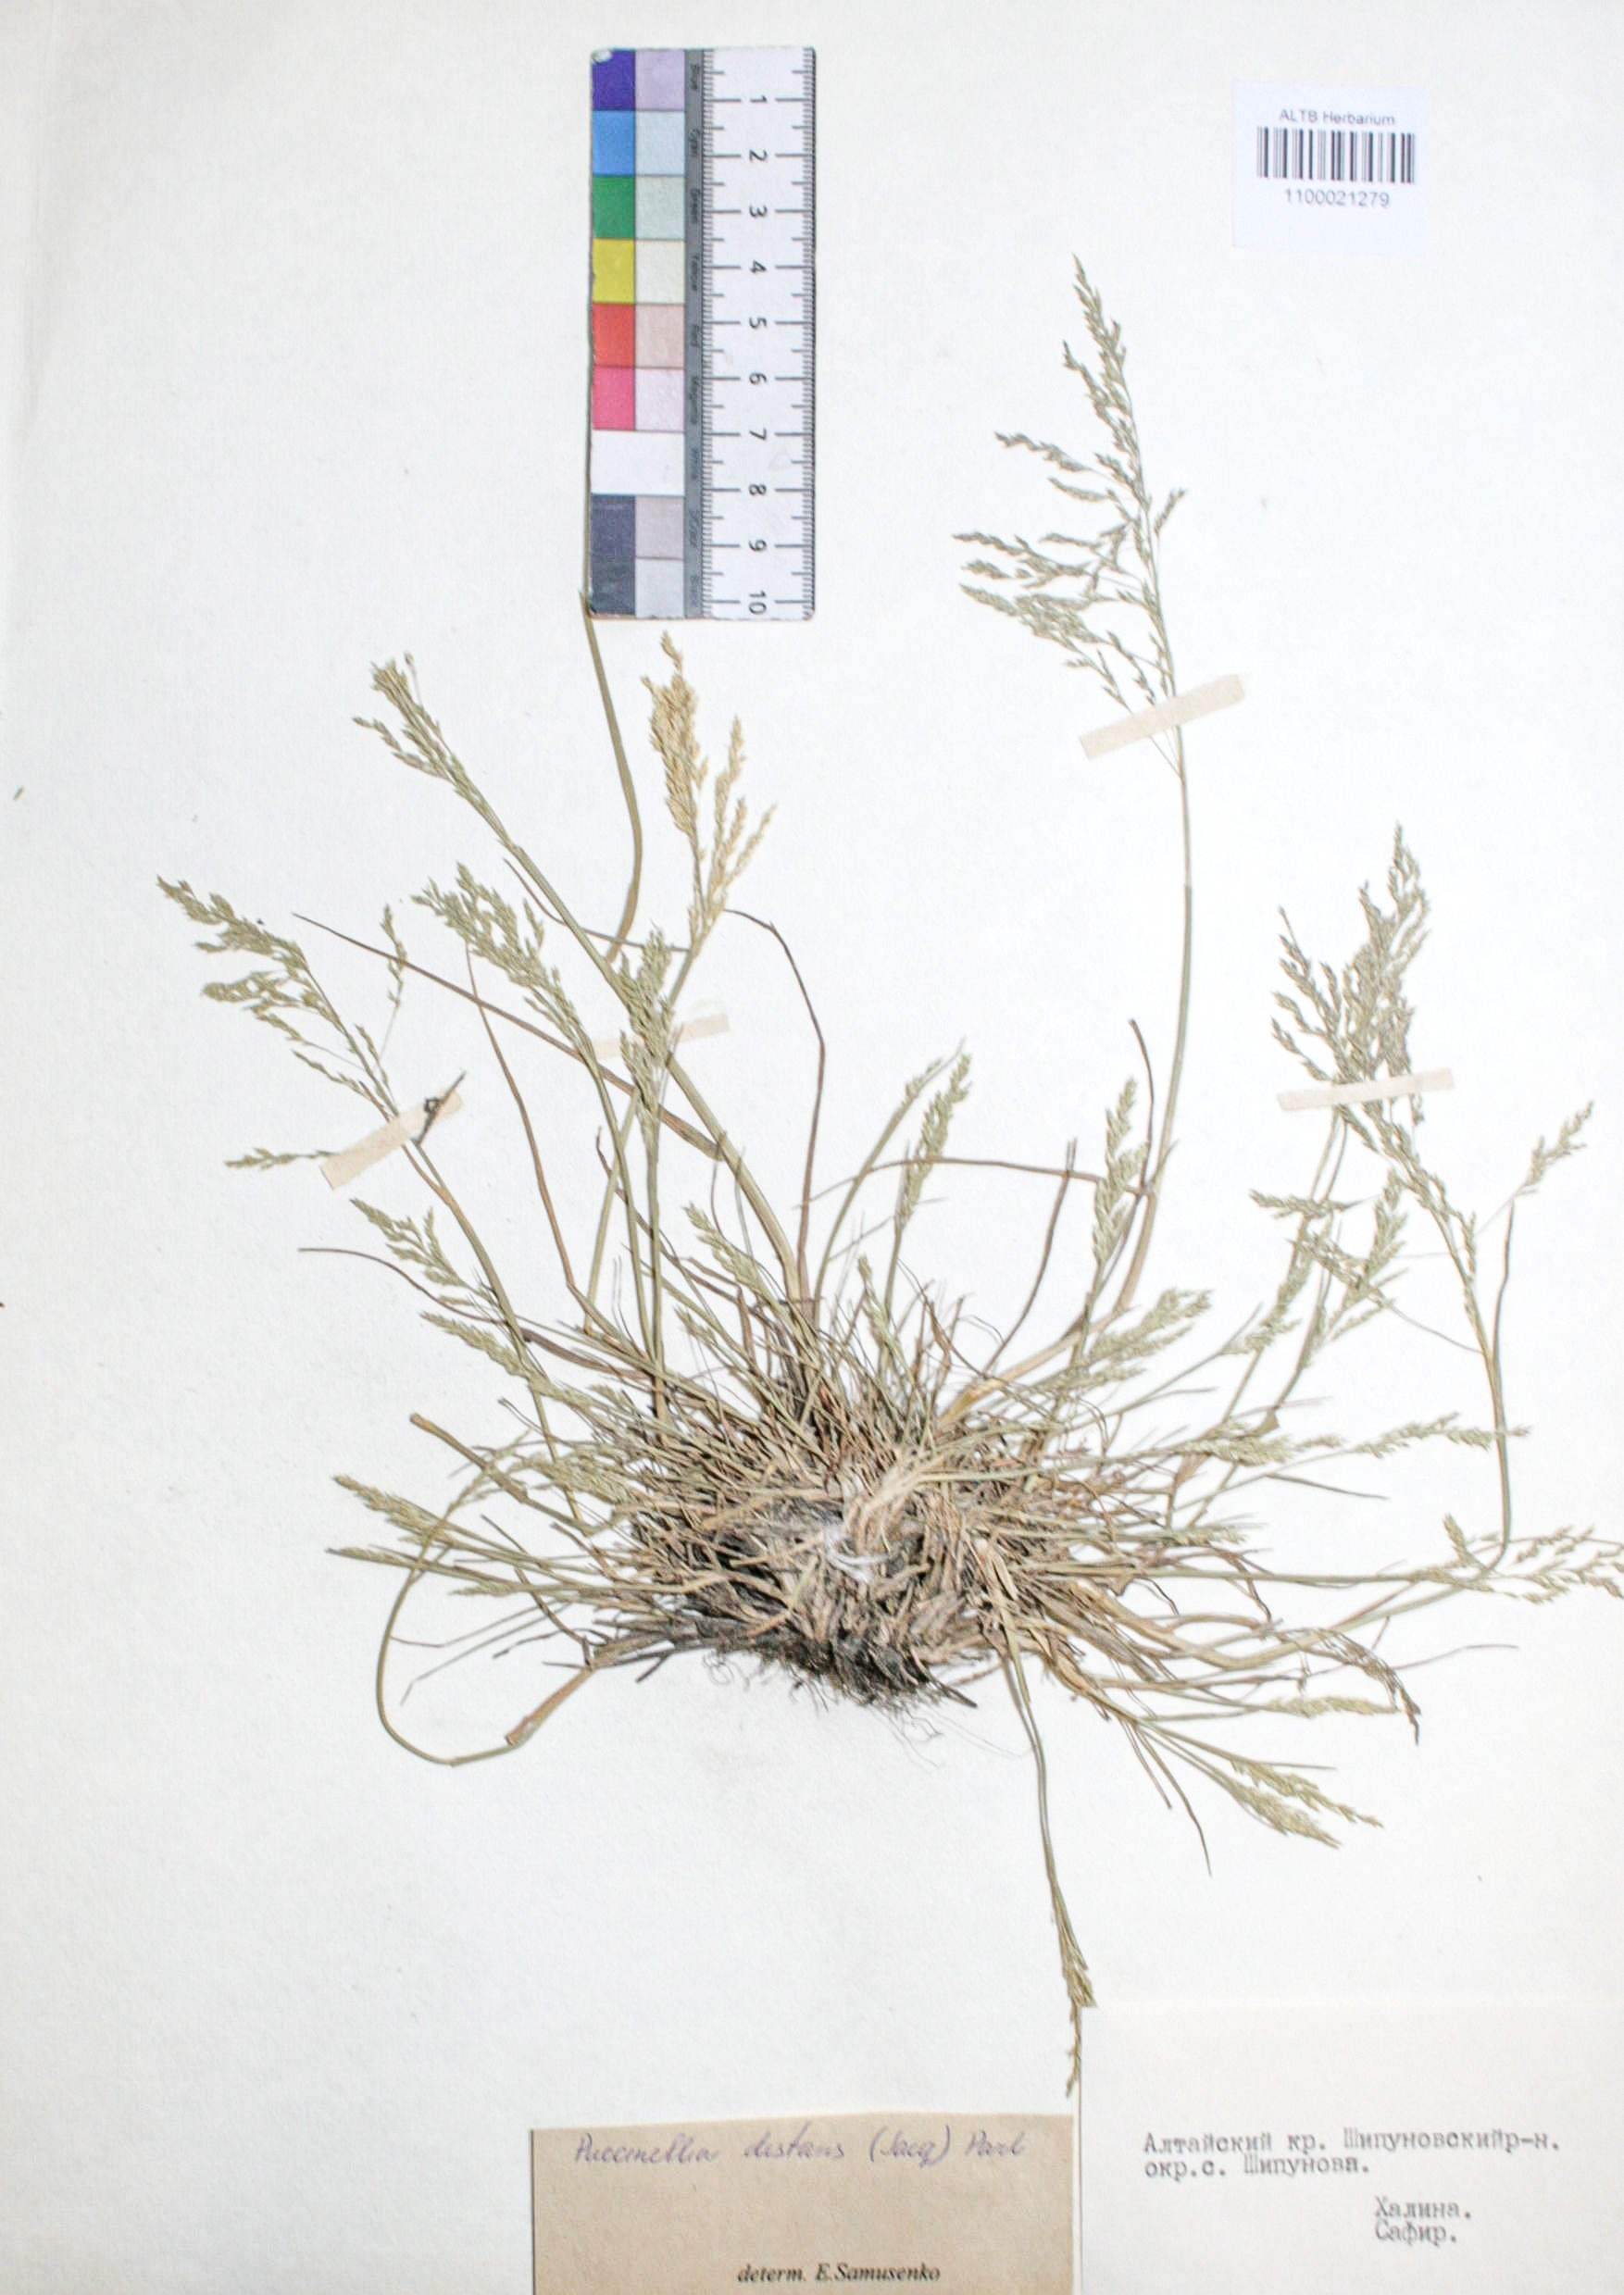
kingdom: Plantae
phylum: Tracheophyta
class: Liliopsida
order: Poales
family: Poaceae
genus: Puccinellia
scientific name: Puccinellia distans
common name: Weeping alkaligrass
